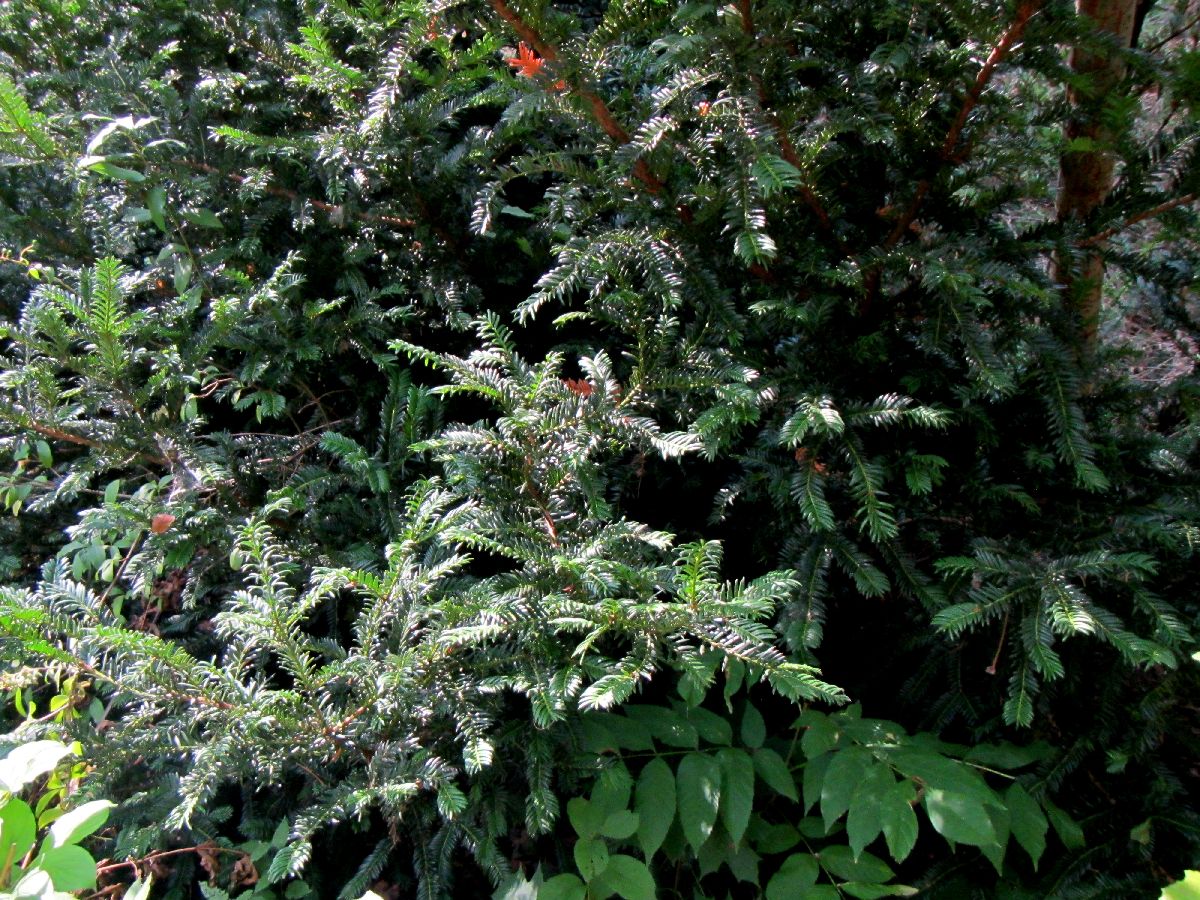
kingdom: Plantae
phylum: Tracheophyta
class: Pinopsida
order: Pinales
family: Taxaceae
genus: Taxus
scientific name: Taxus baccata
